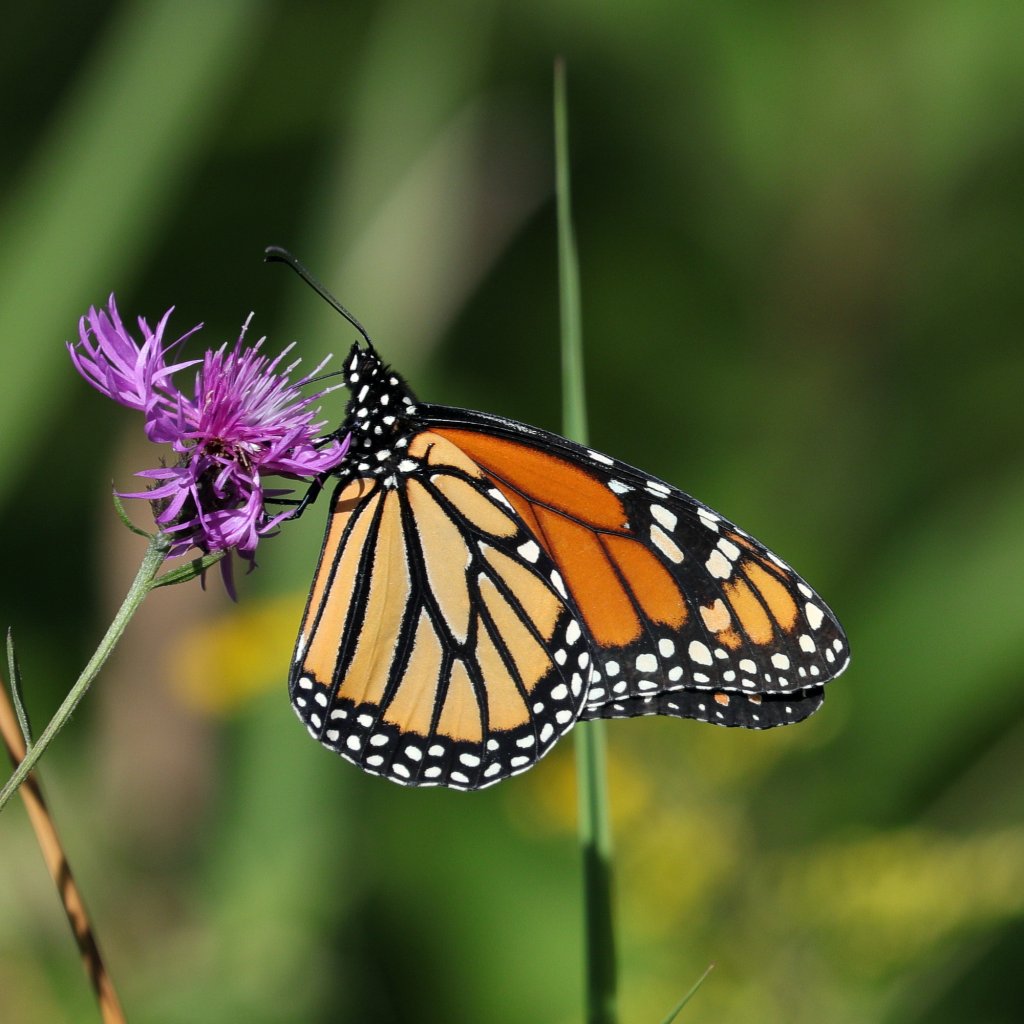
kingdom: Animalia
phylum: Arthropoda
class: Insecta
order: Lepidoptera
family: Nymphalidae
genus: Danaus
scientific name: Danaus plexippus
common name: Monarch
